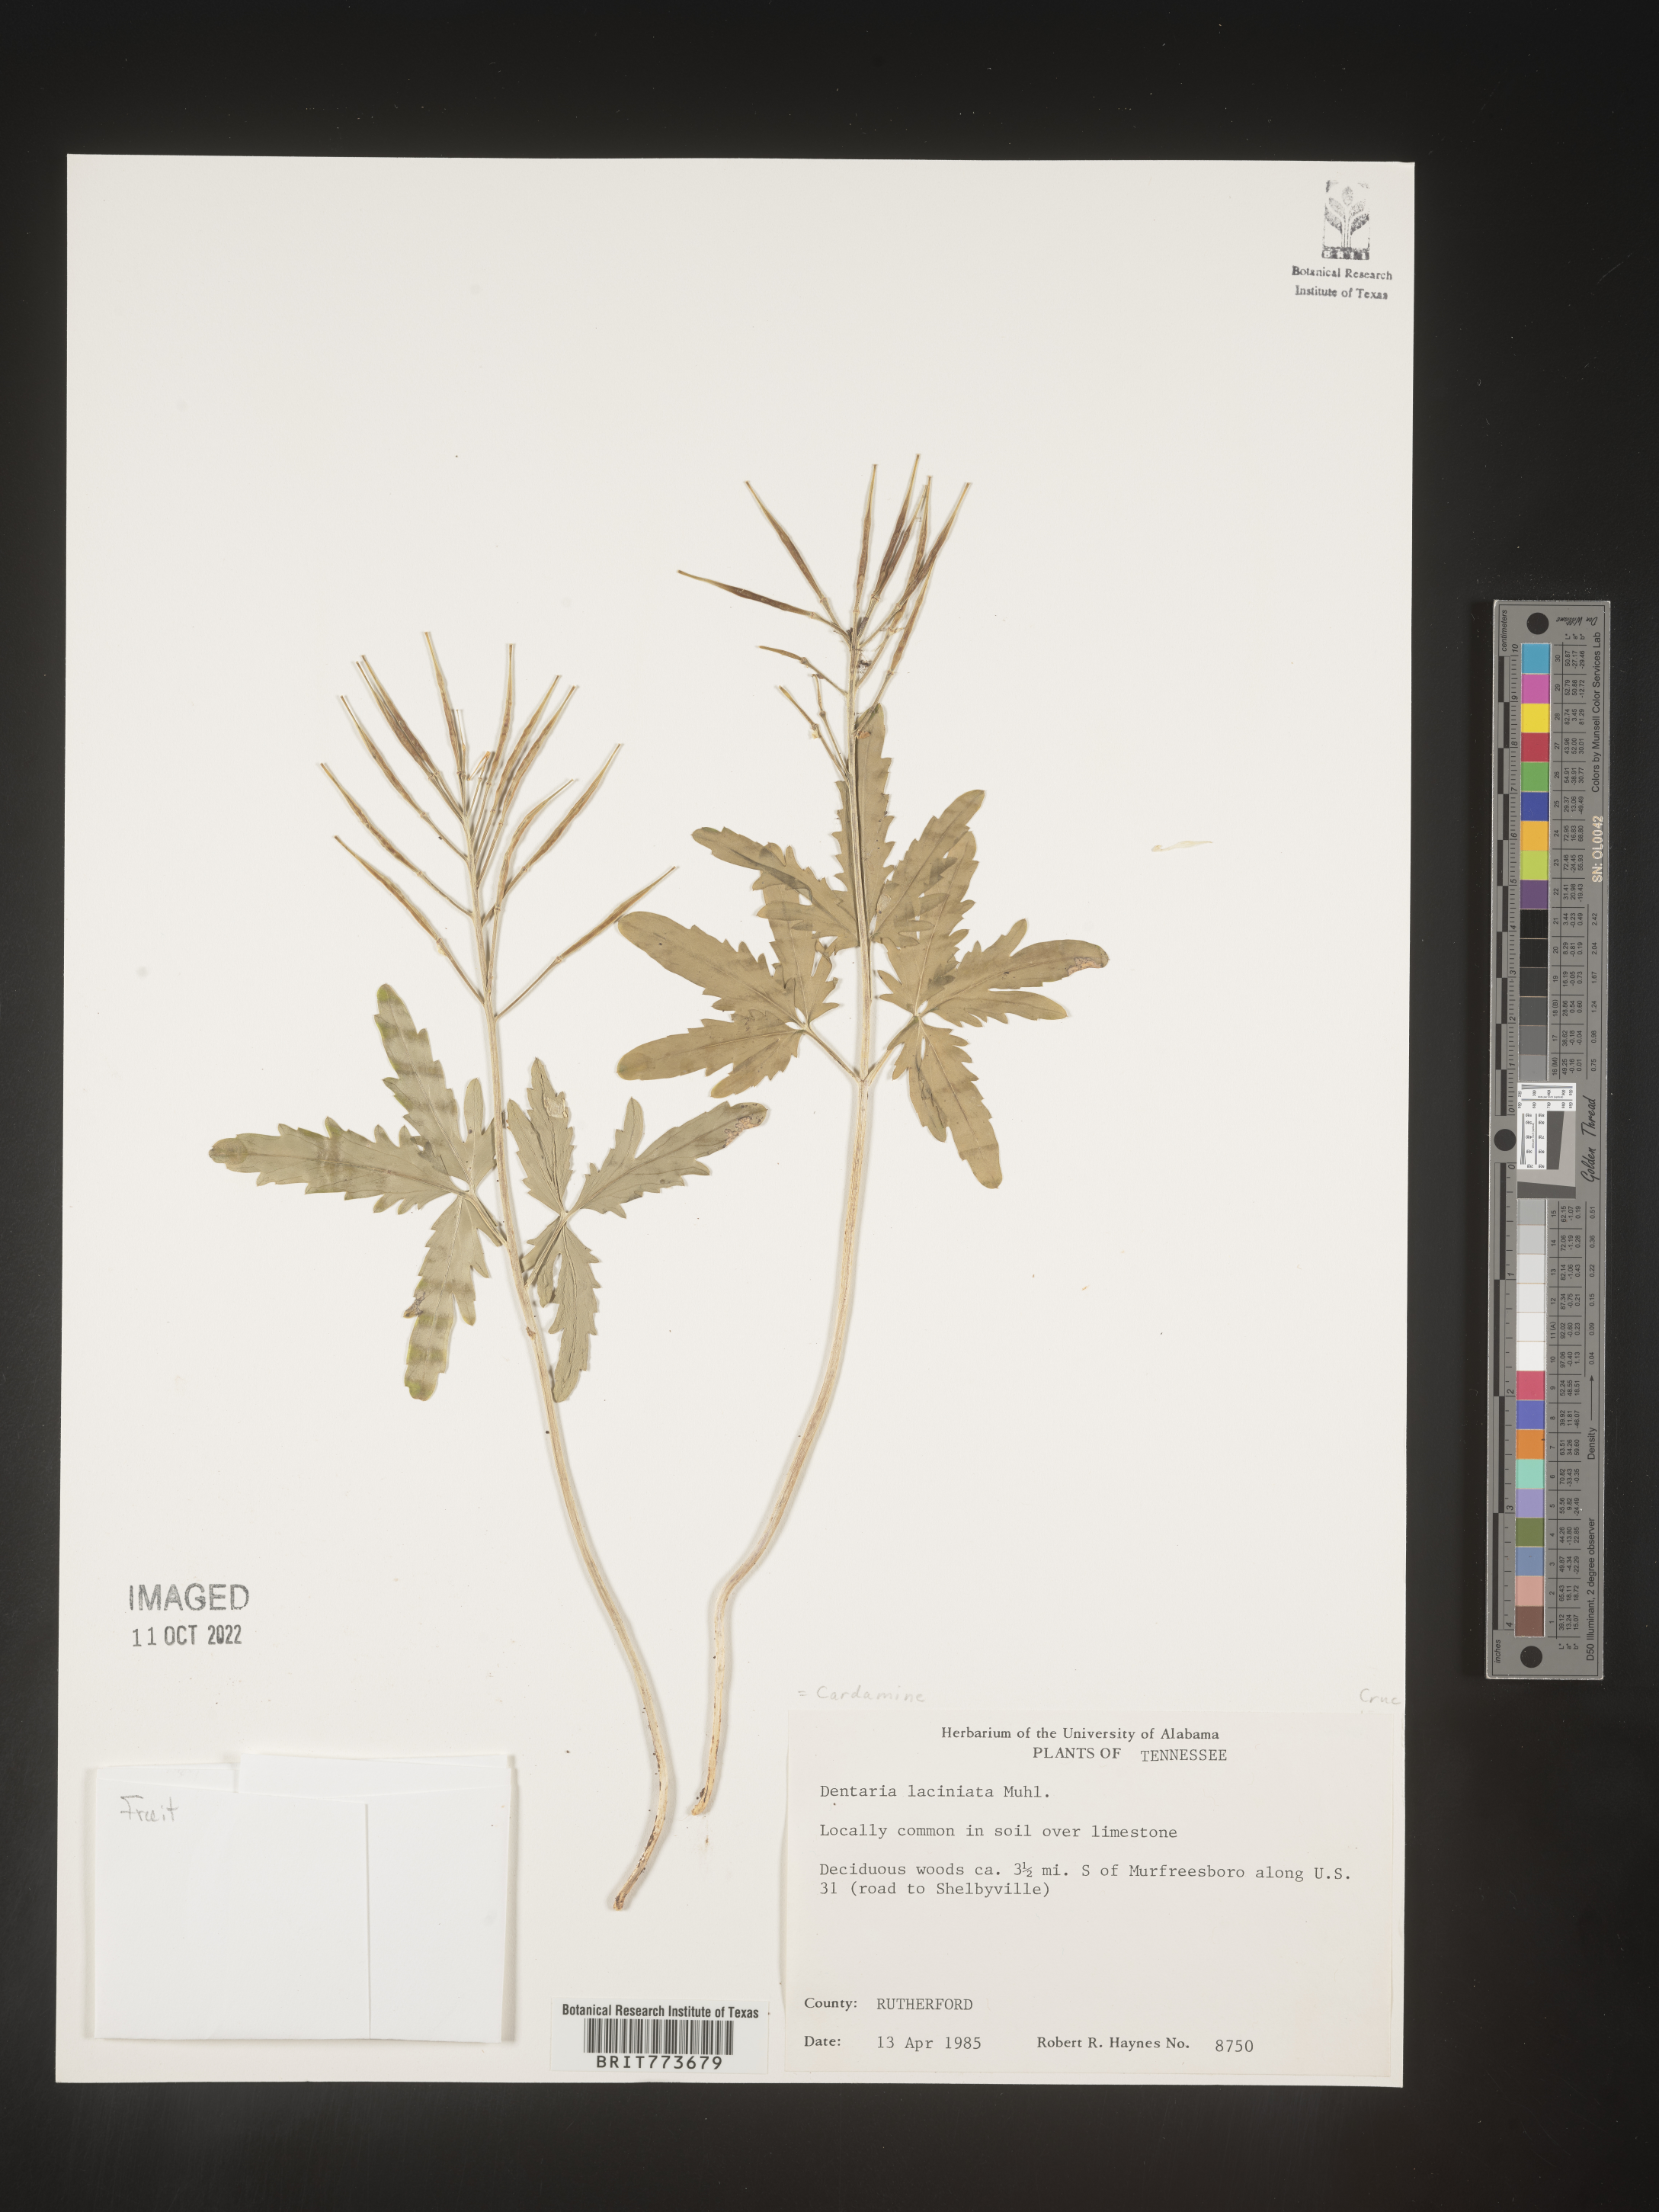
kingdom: Plantae
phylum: Tracheophyta
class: Magnoliopsida
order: Brassicales
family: Brassicaceae
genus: Rorippa
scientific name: Rorippa laciniata
